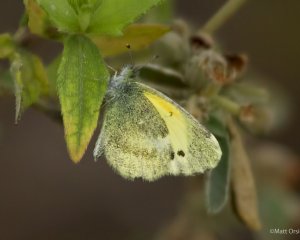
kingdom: Animalia
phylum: Arthropoda
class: Insecta
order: Lepidoptera
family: Pieridae
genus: Nathalis
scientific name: Nathalis iole
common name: Dainty Sulphur
